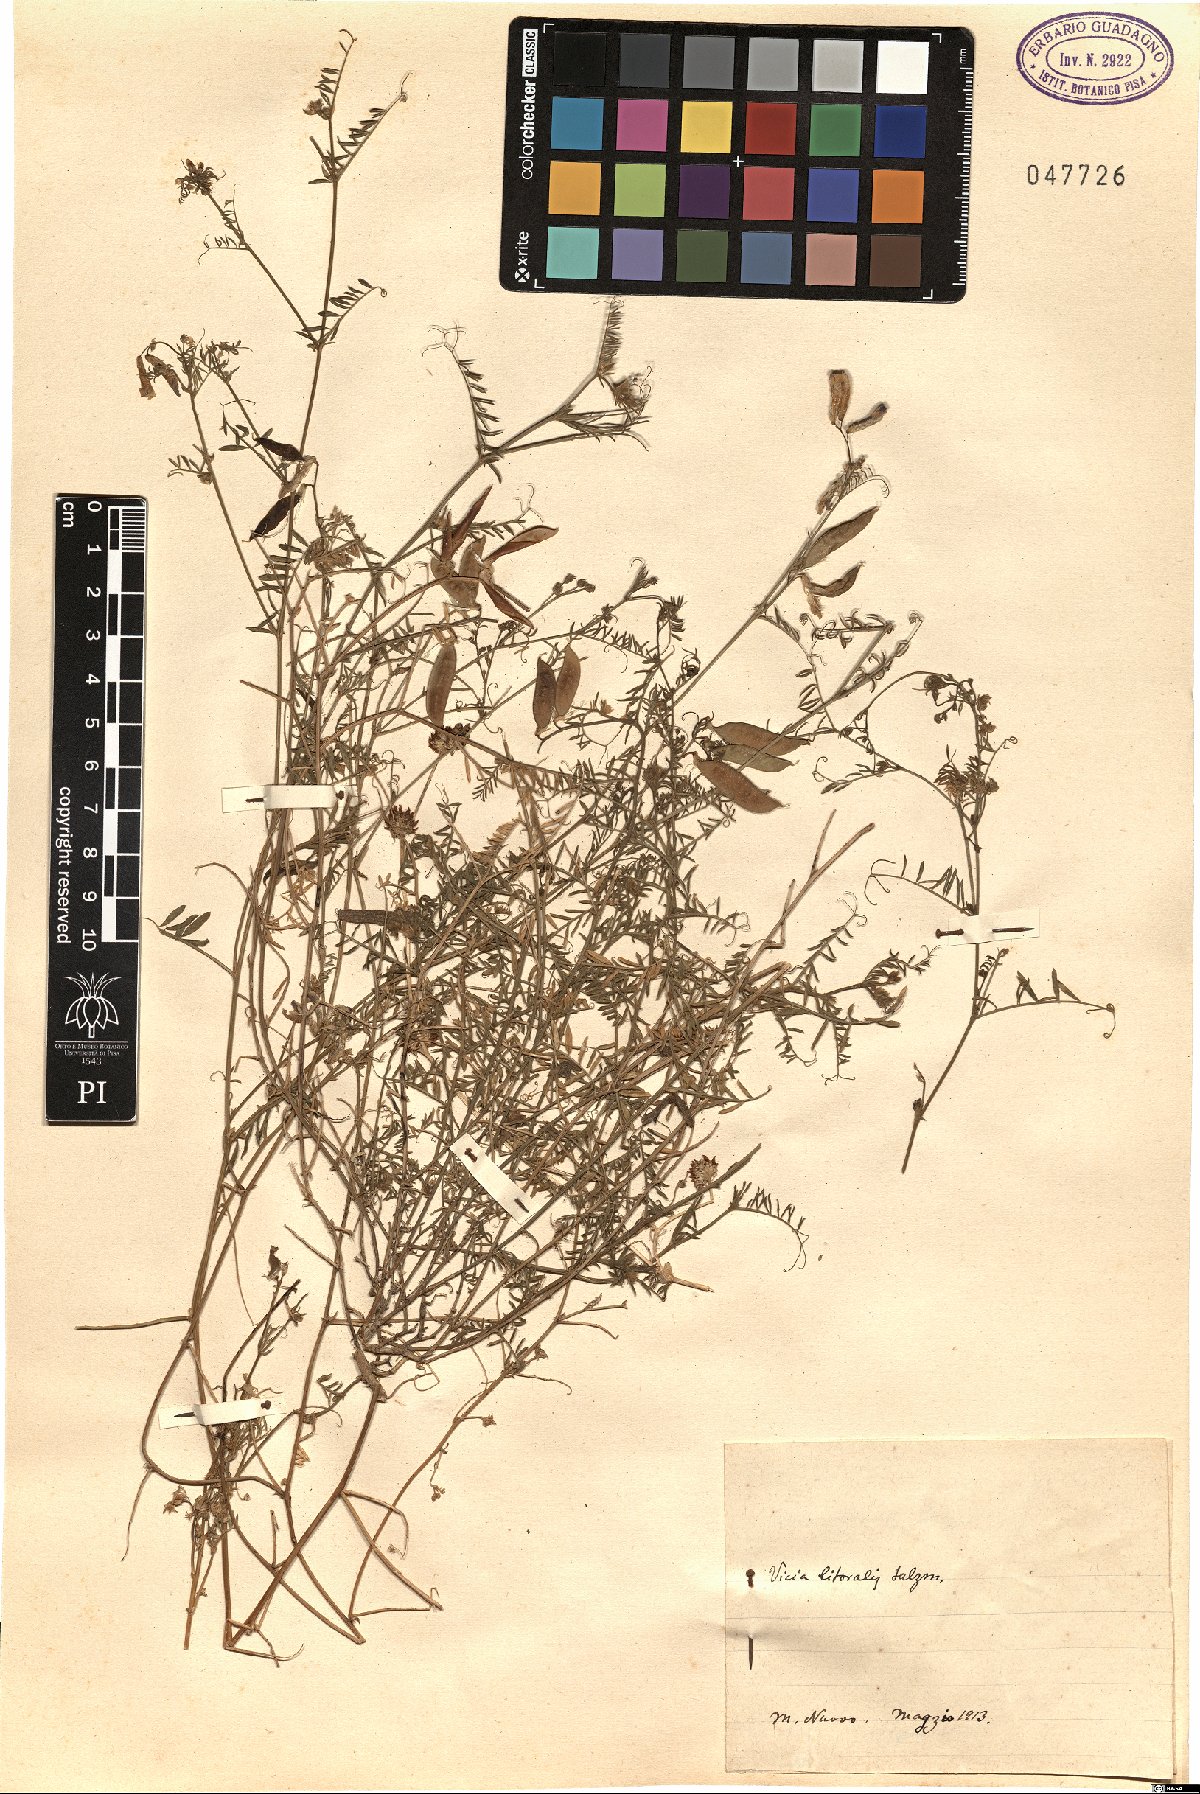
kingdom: Plantae
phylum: Tracheophyta
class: Magnoliopsida
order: Fabales
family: Fabaceae
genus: Vicia
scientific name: Vicia villosa
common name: Fodder vetch
